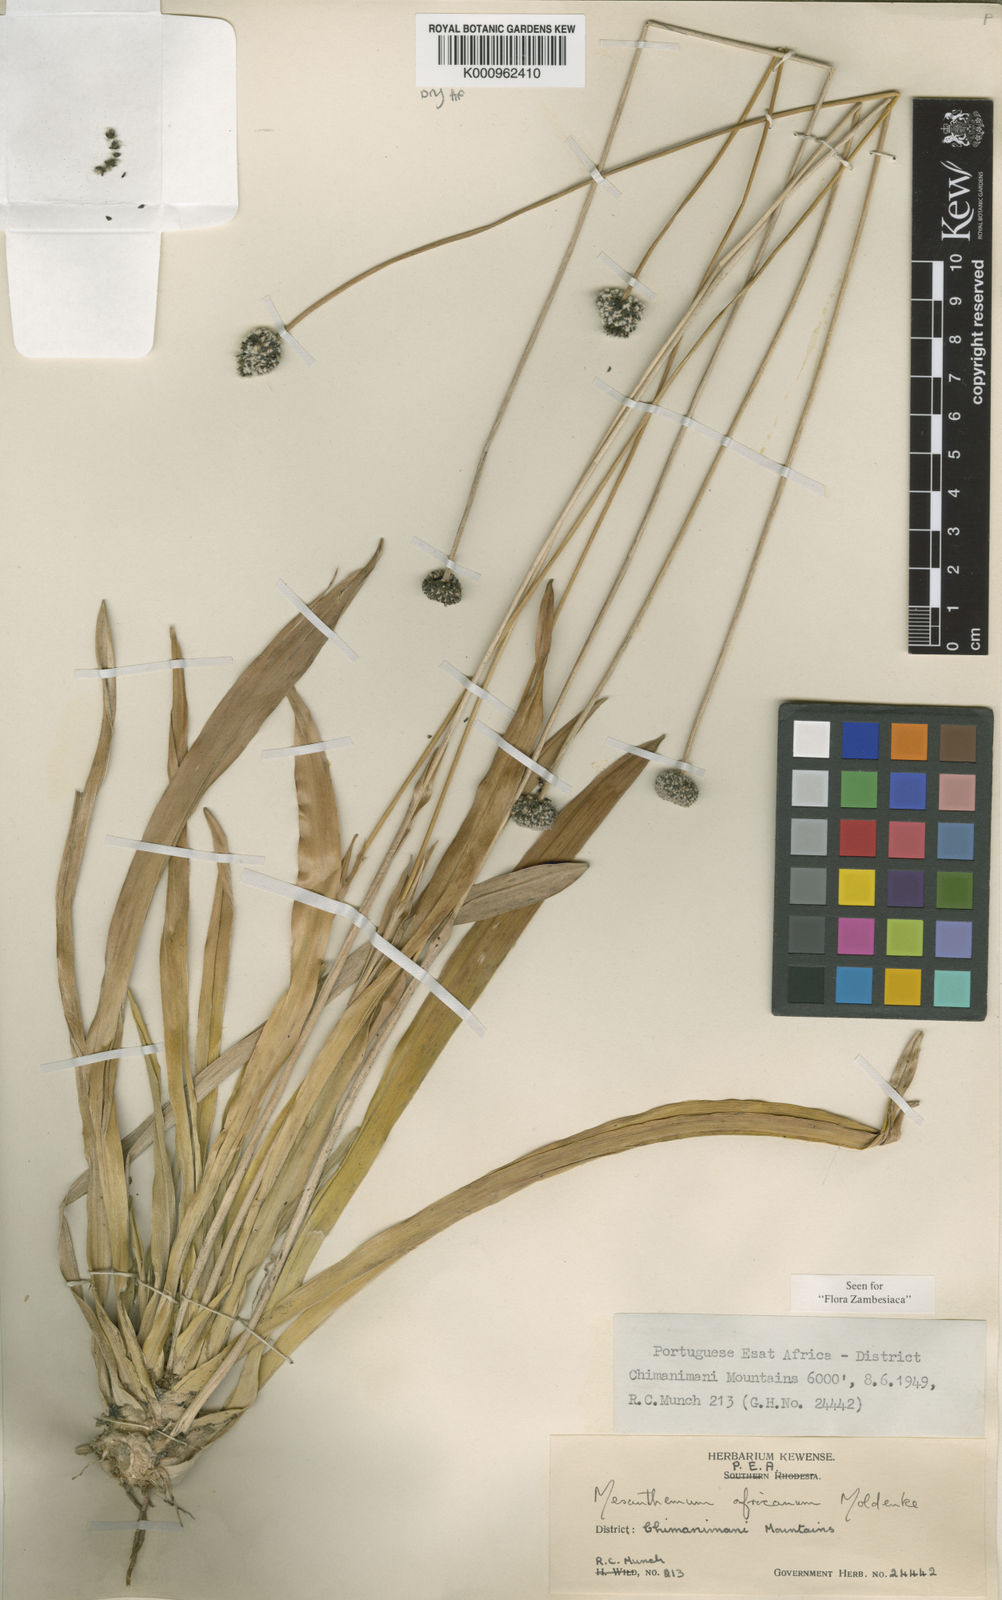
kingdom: Plantae
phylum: Tracheophyta
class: Liliopsida
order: Poales
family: Eriocaulaceae
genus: Mesanthemum
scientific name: Mesanthemum africanum
